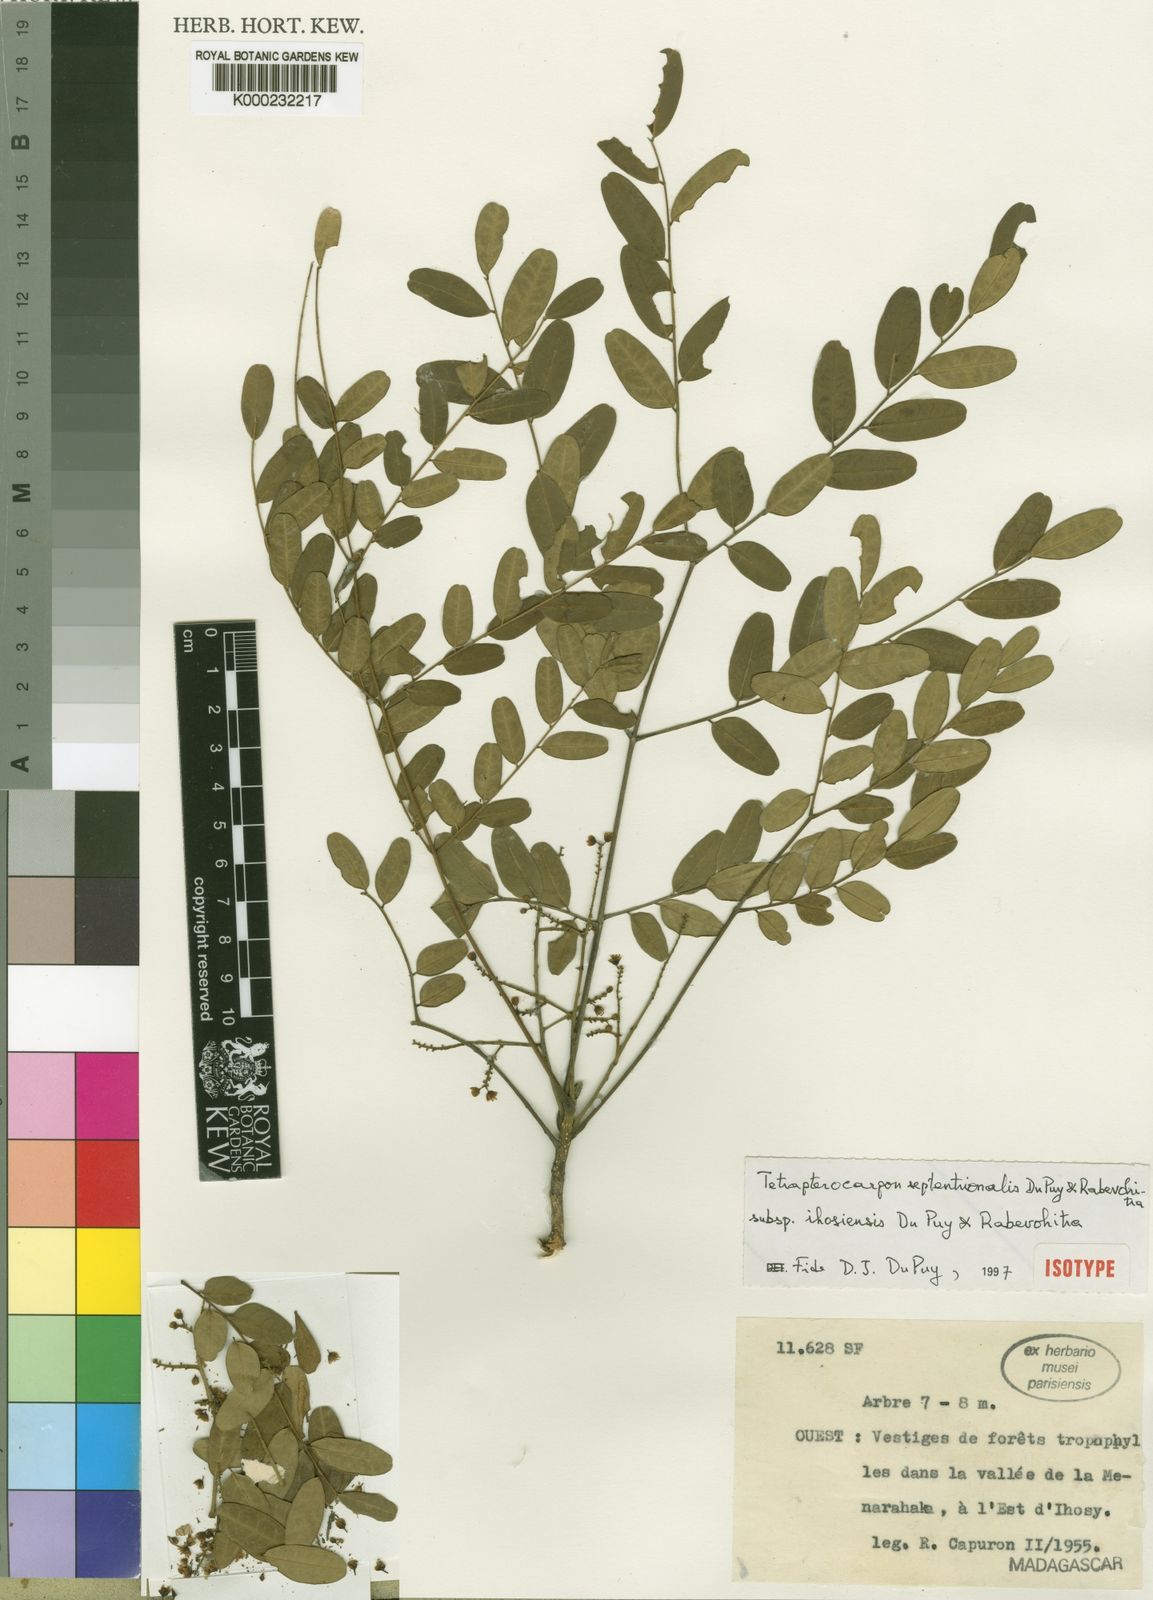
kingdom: Plantae
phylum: Tracheophyta
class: Magnoliopsida
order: Fabales
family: Fabaceae
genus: Tetrapterocarpon
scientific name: Tetrapterocarpon septentrionale
